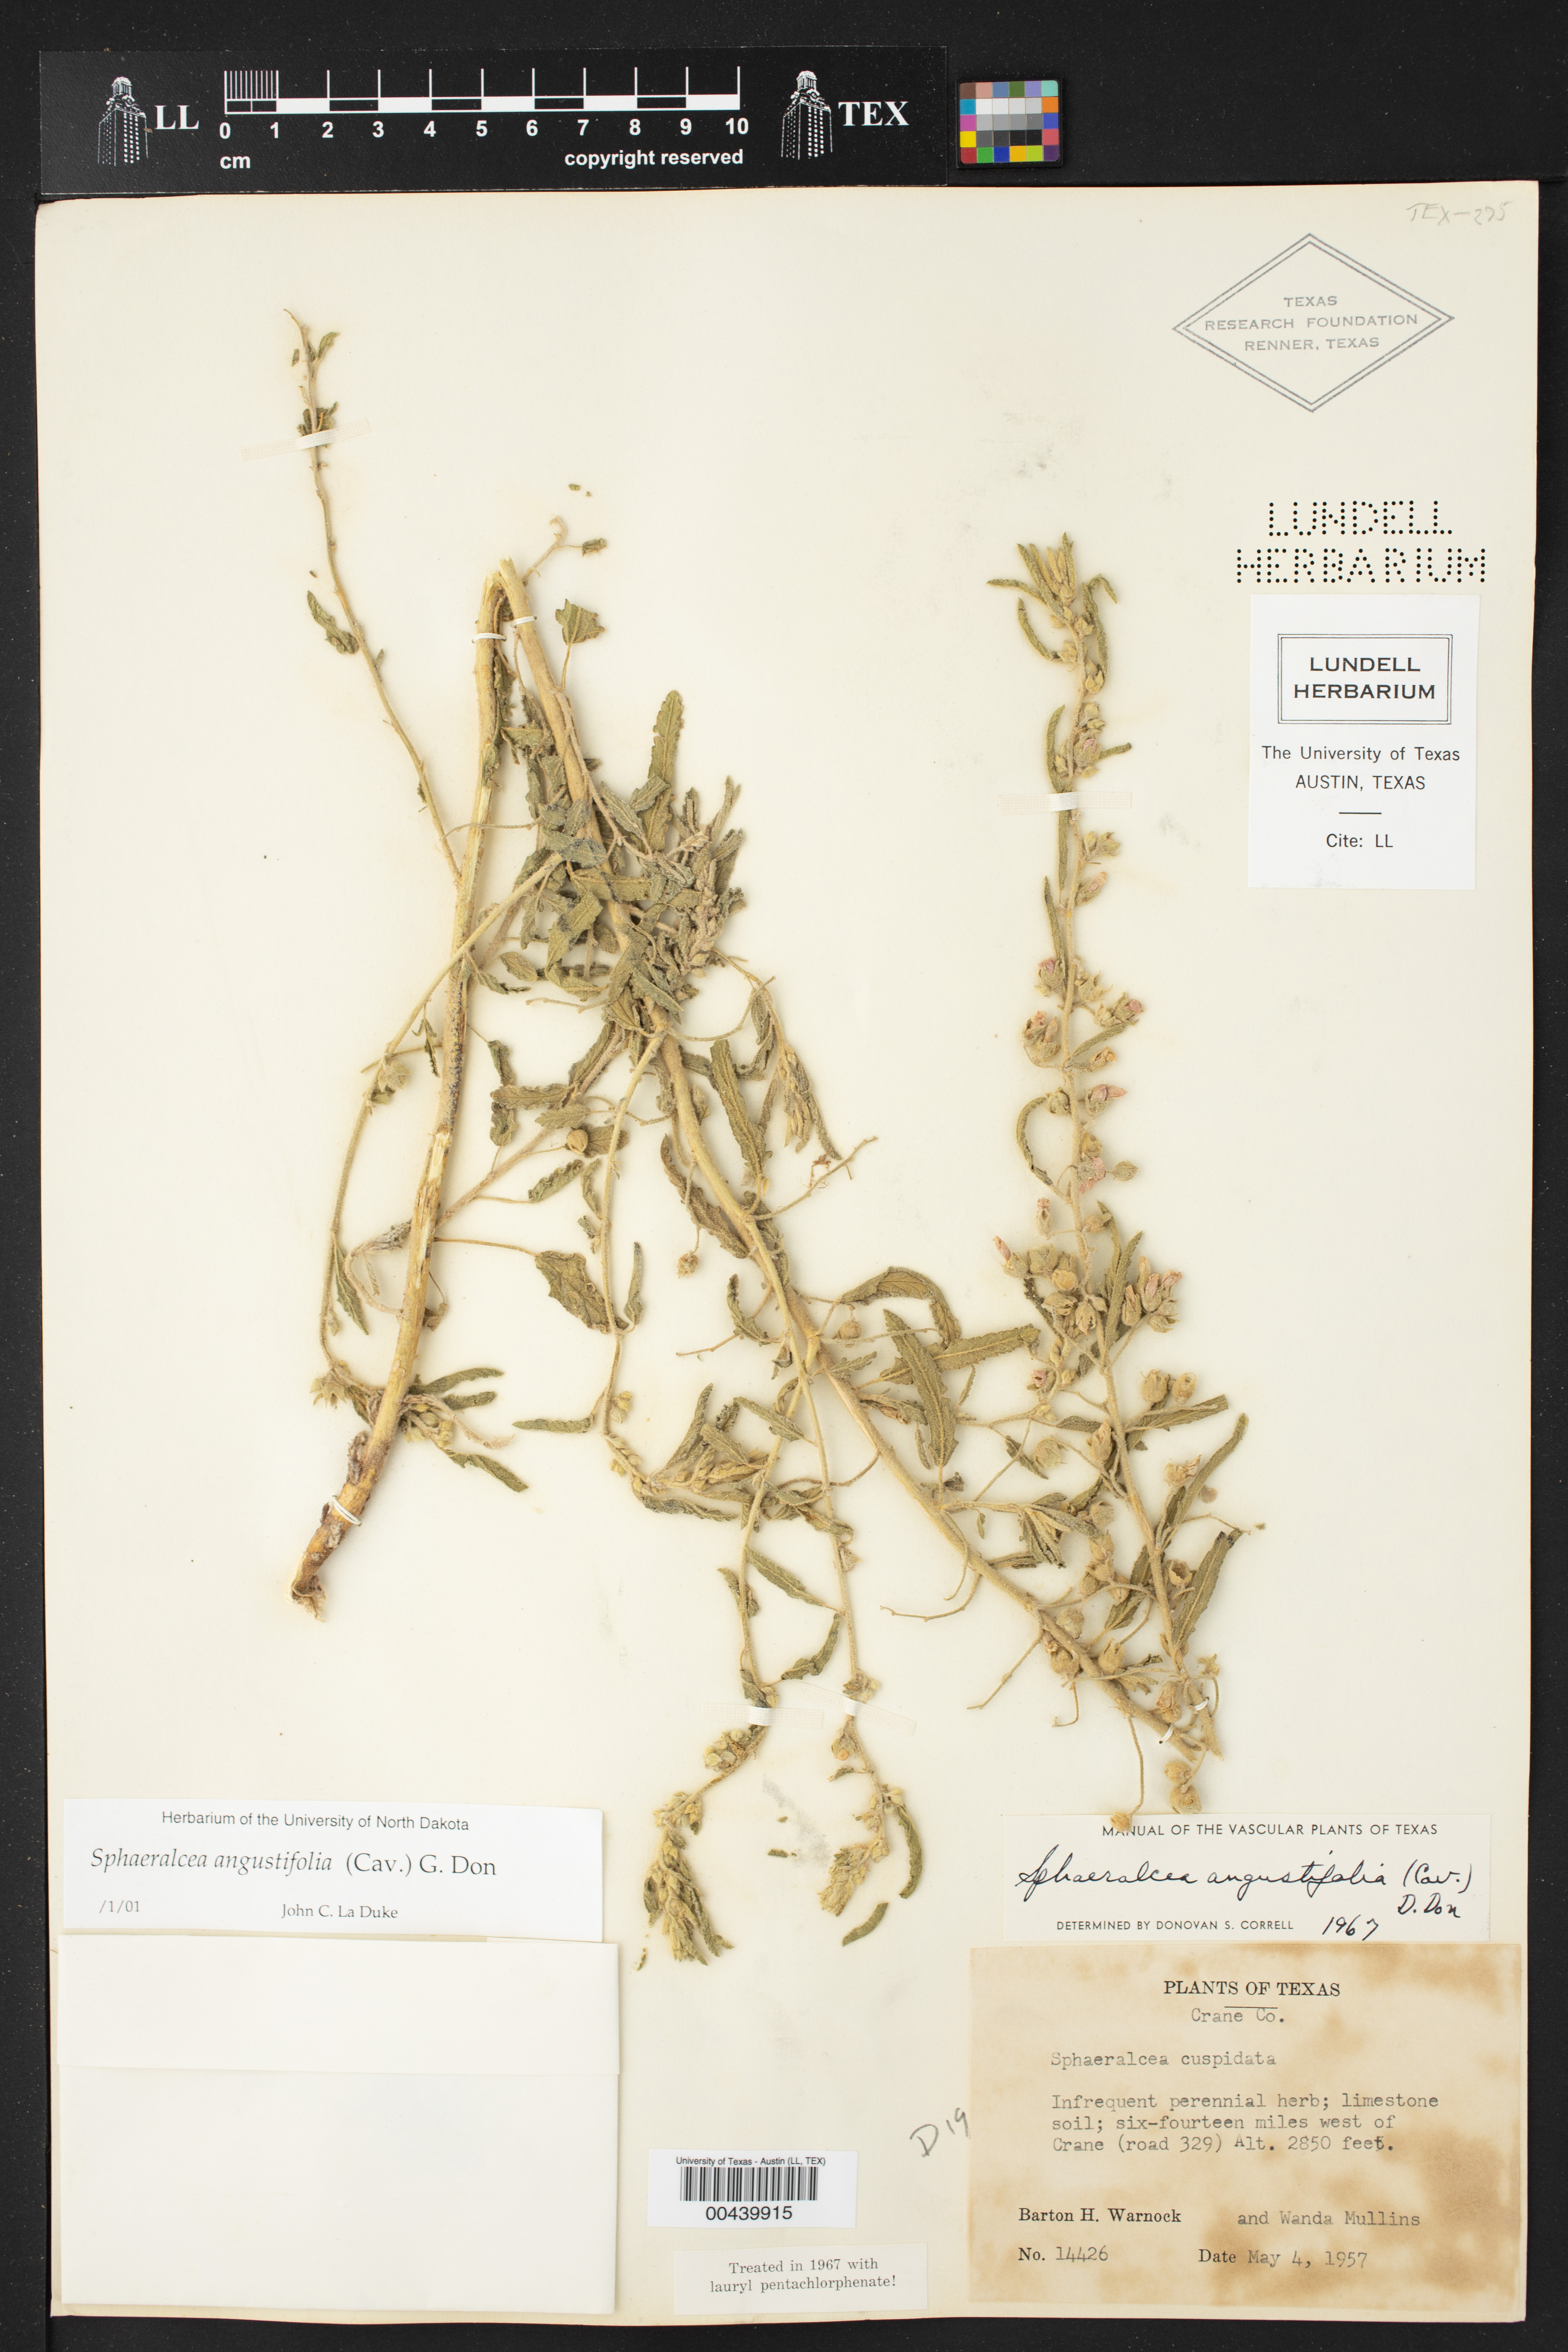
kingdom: Plantae
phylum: Tracheophyta
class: Magnoliopsida
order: Malvales
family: Malvaceae
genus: Sphaeralcea
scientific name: Sphaeralcea angustifolia
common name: Copper globe-mallow
